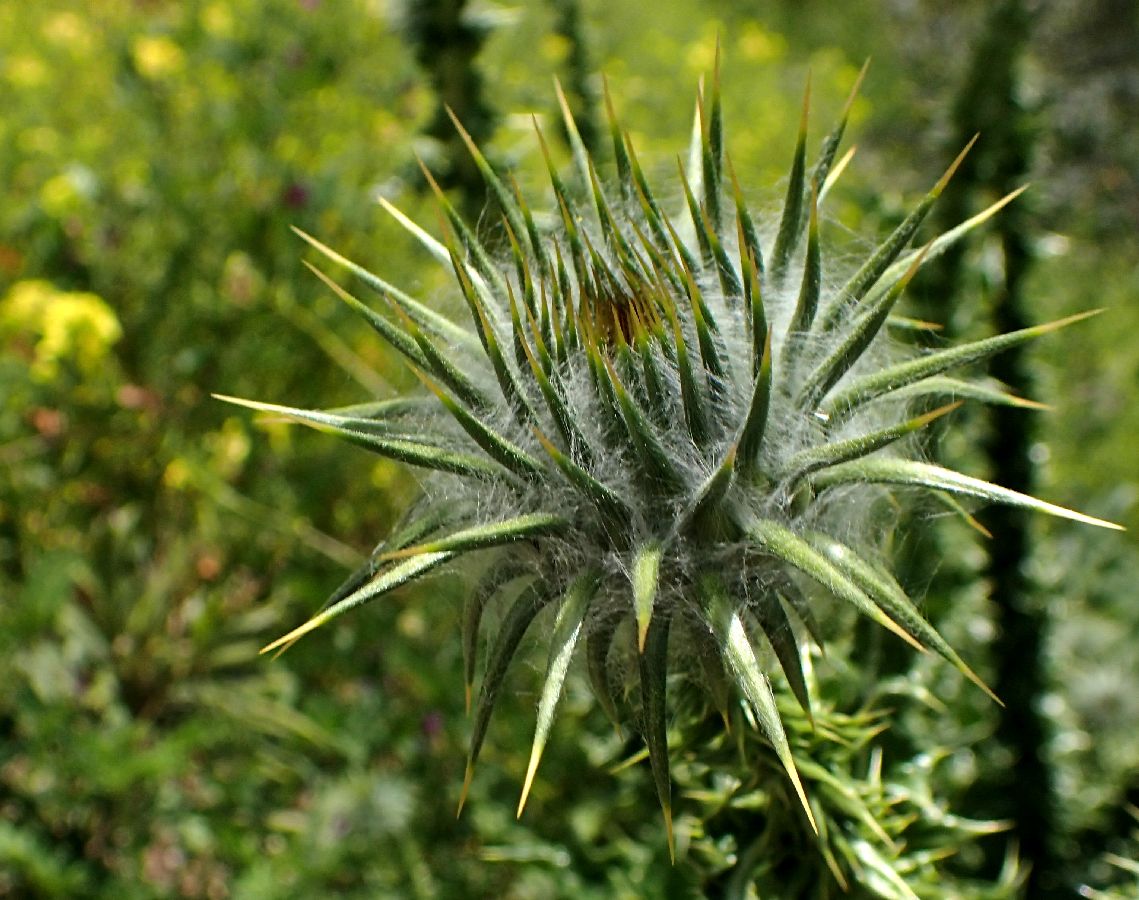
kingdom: Plantae
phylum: Tracheophyta
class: Magnoliopsida
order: Asterales
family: Asteraceae
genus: Onopordum
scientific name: Onopordum tauricum
